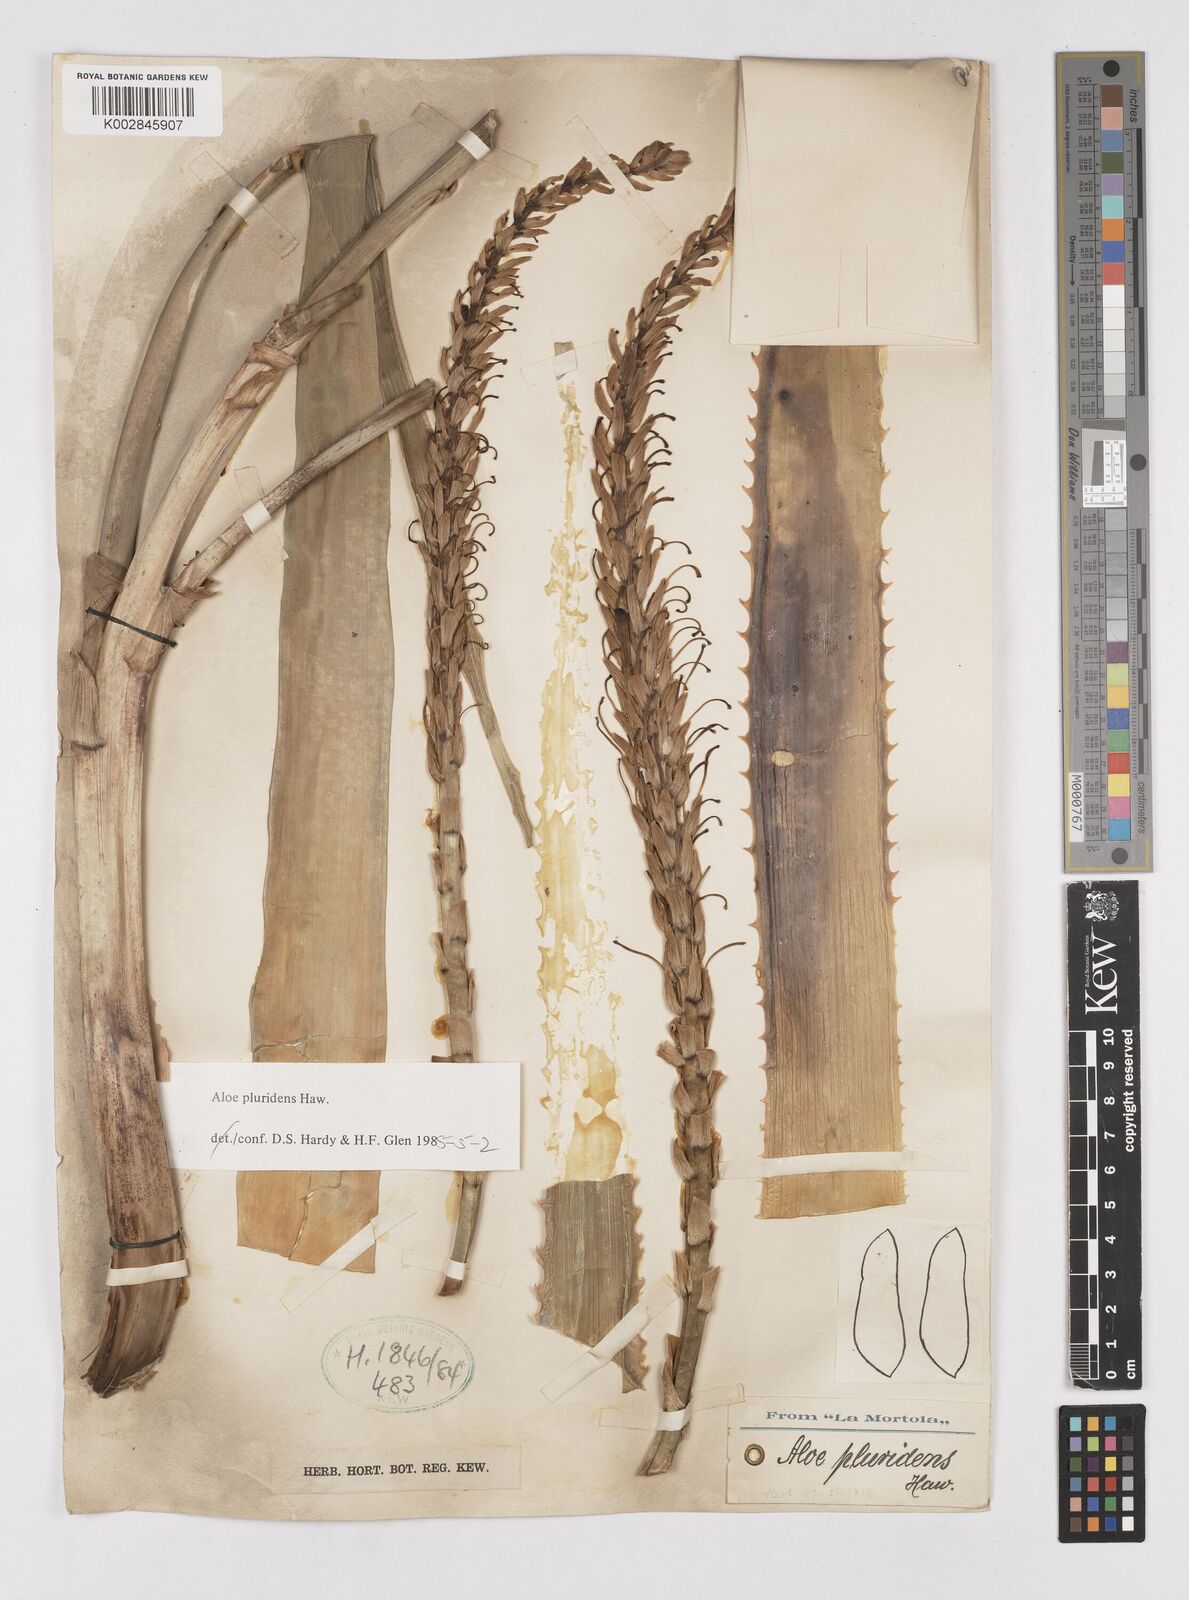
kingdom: Plantae
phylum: Tracheophyta
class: Liliopsida
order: Asparagales
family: Asphodelaceae
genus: Aloe
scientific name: Aloe pluridens
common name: French aloe
